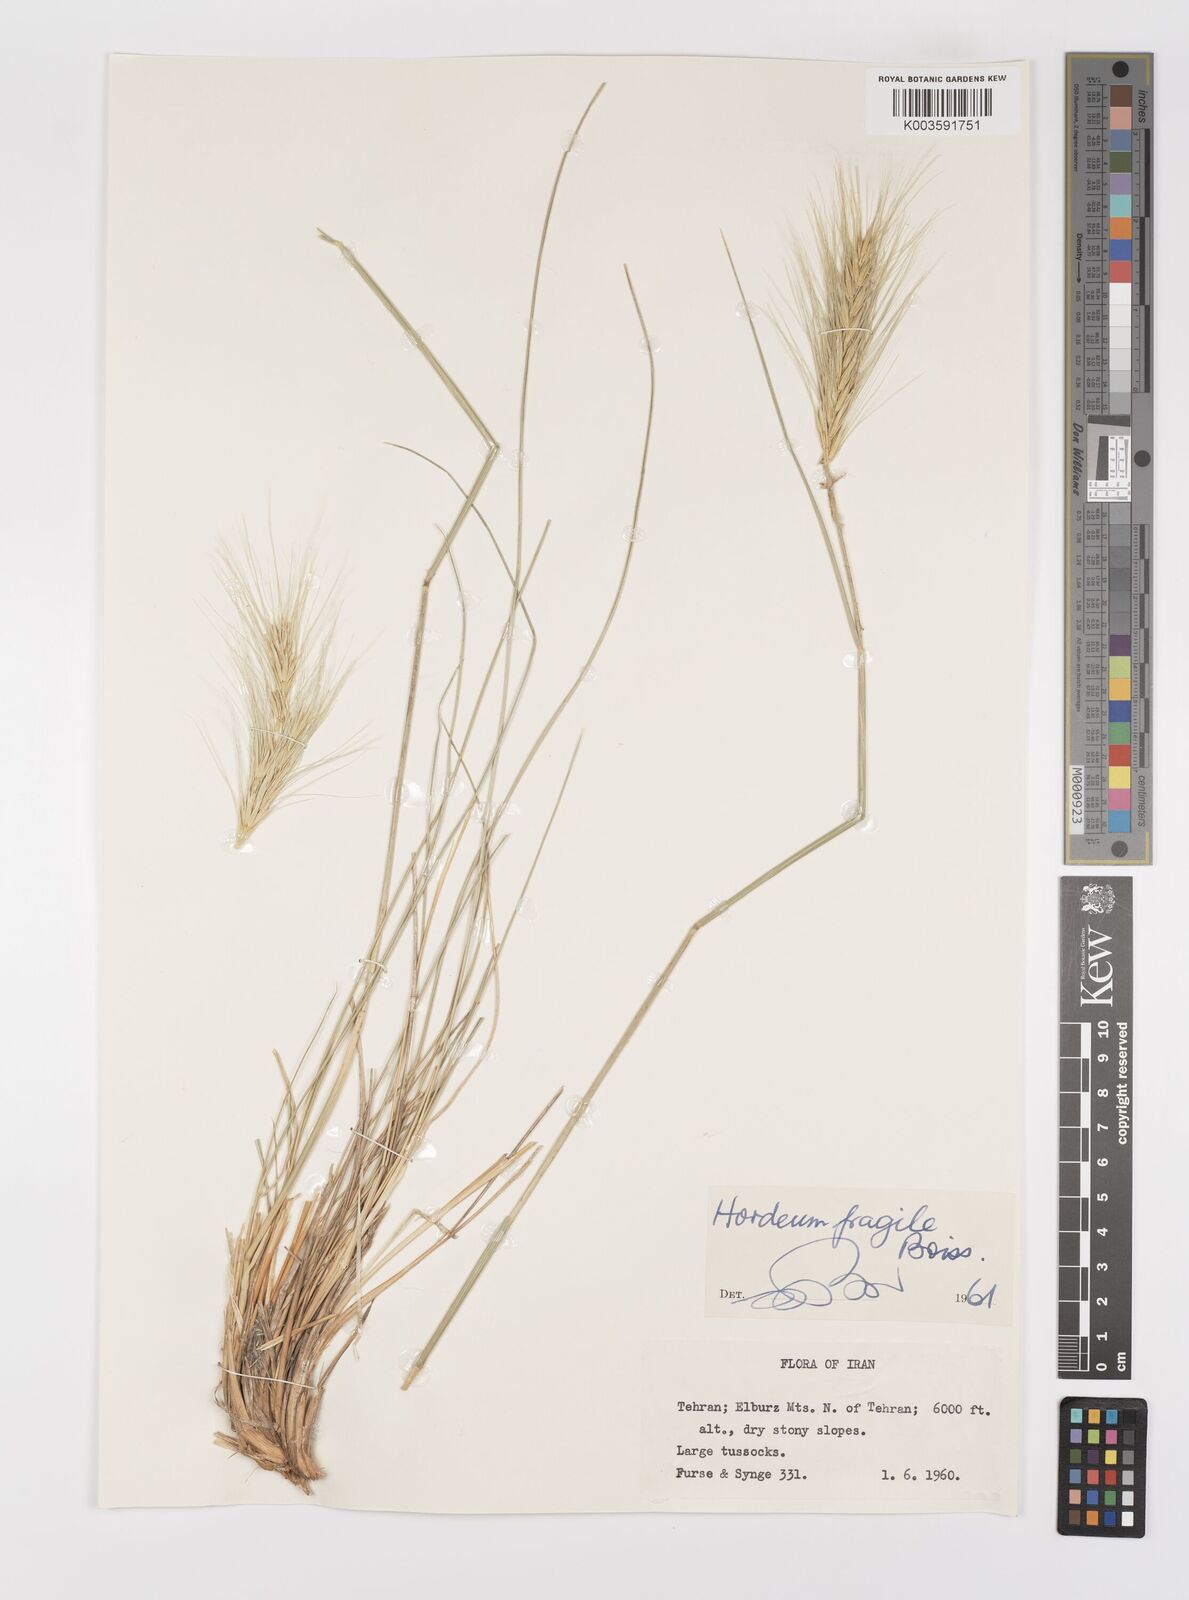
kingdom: Plantae
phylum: Tracheophyta
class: Liliopsida
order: Poales
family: Poaceae
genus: Psathyrostachys
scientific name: Psathyrostachys fragilis
